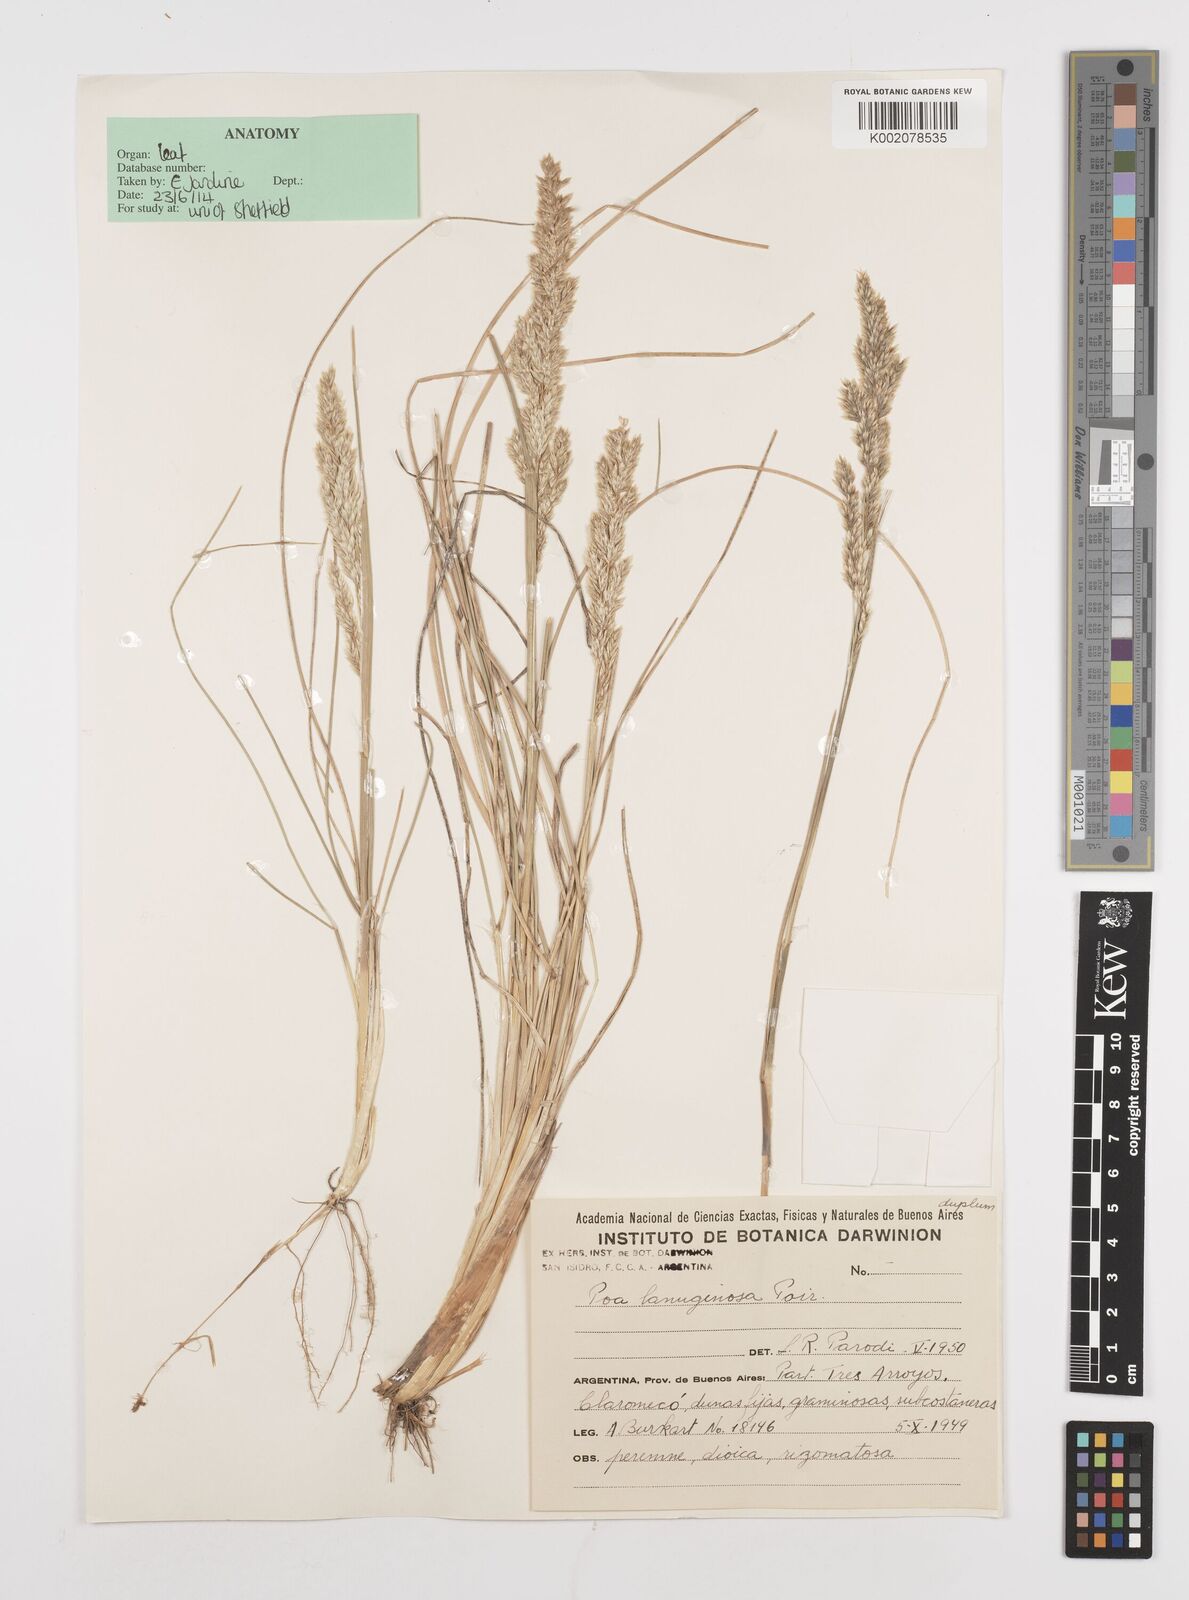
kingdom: Plantae
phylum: Tracheophyta
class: Liliopsida
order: Poales
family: Poaceae
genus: Poa
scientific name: Poa lanuginosa
